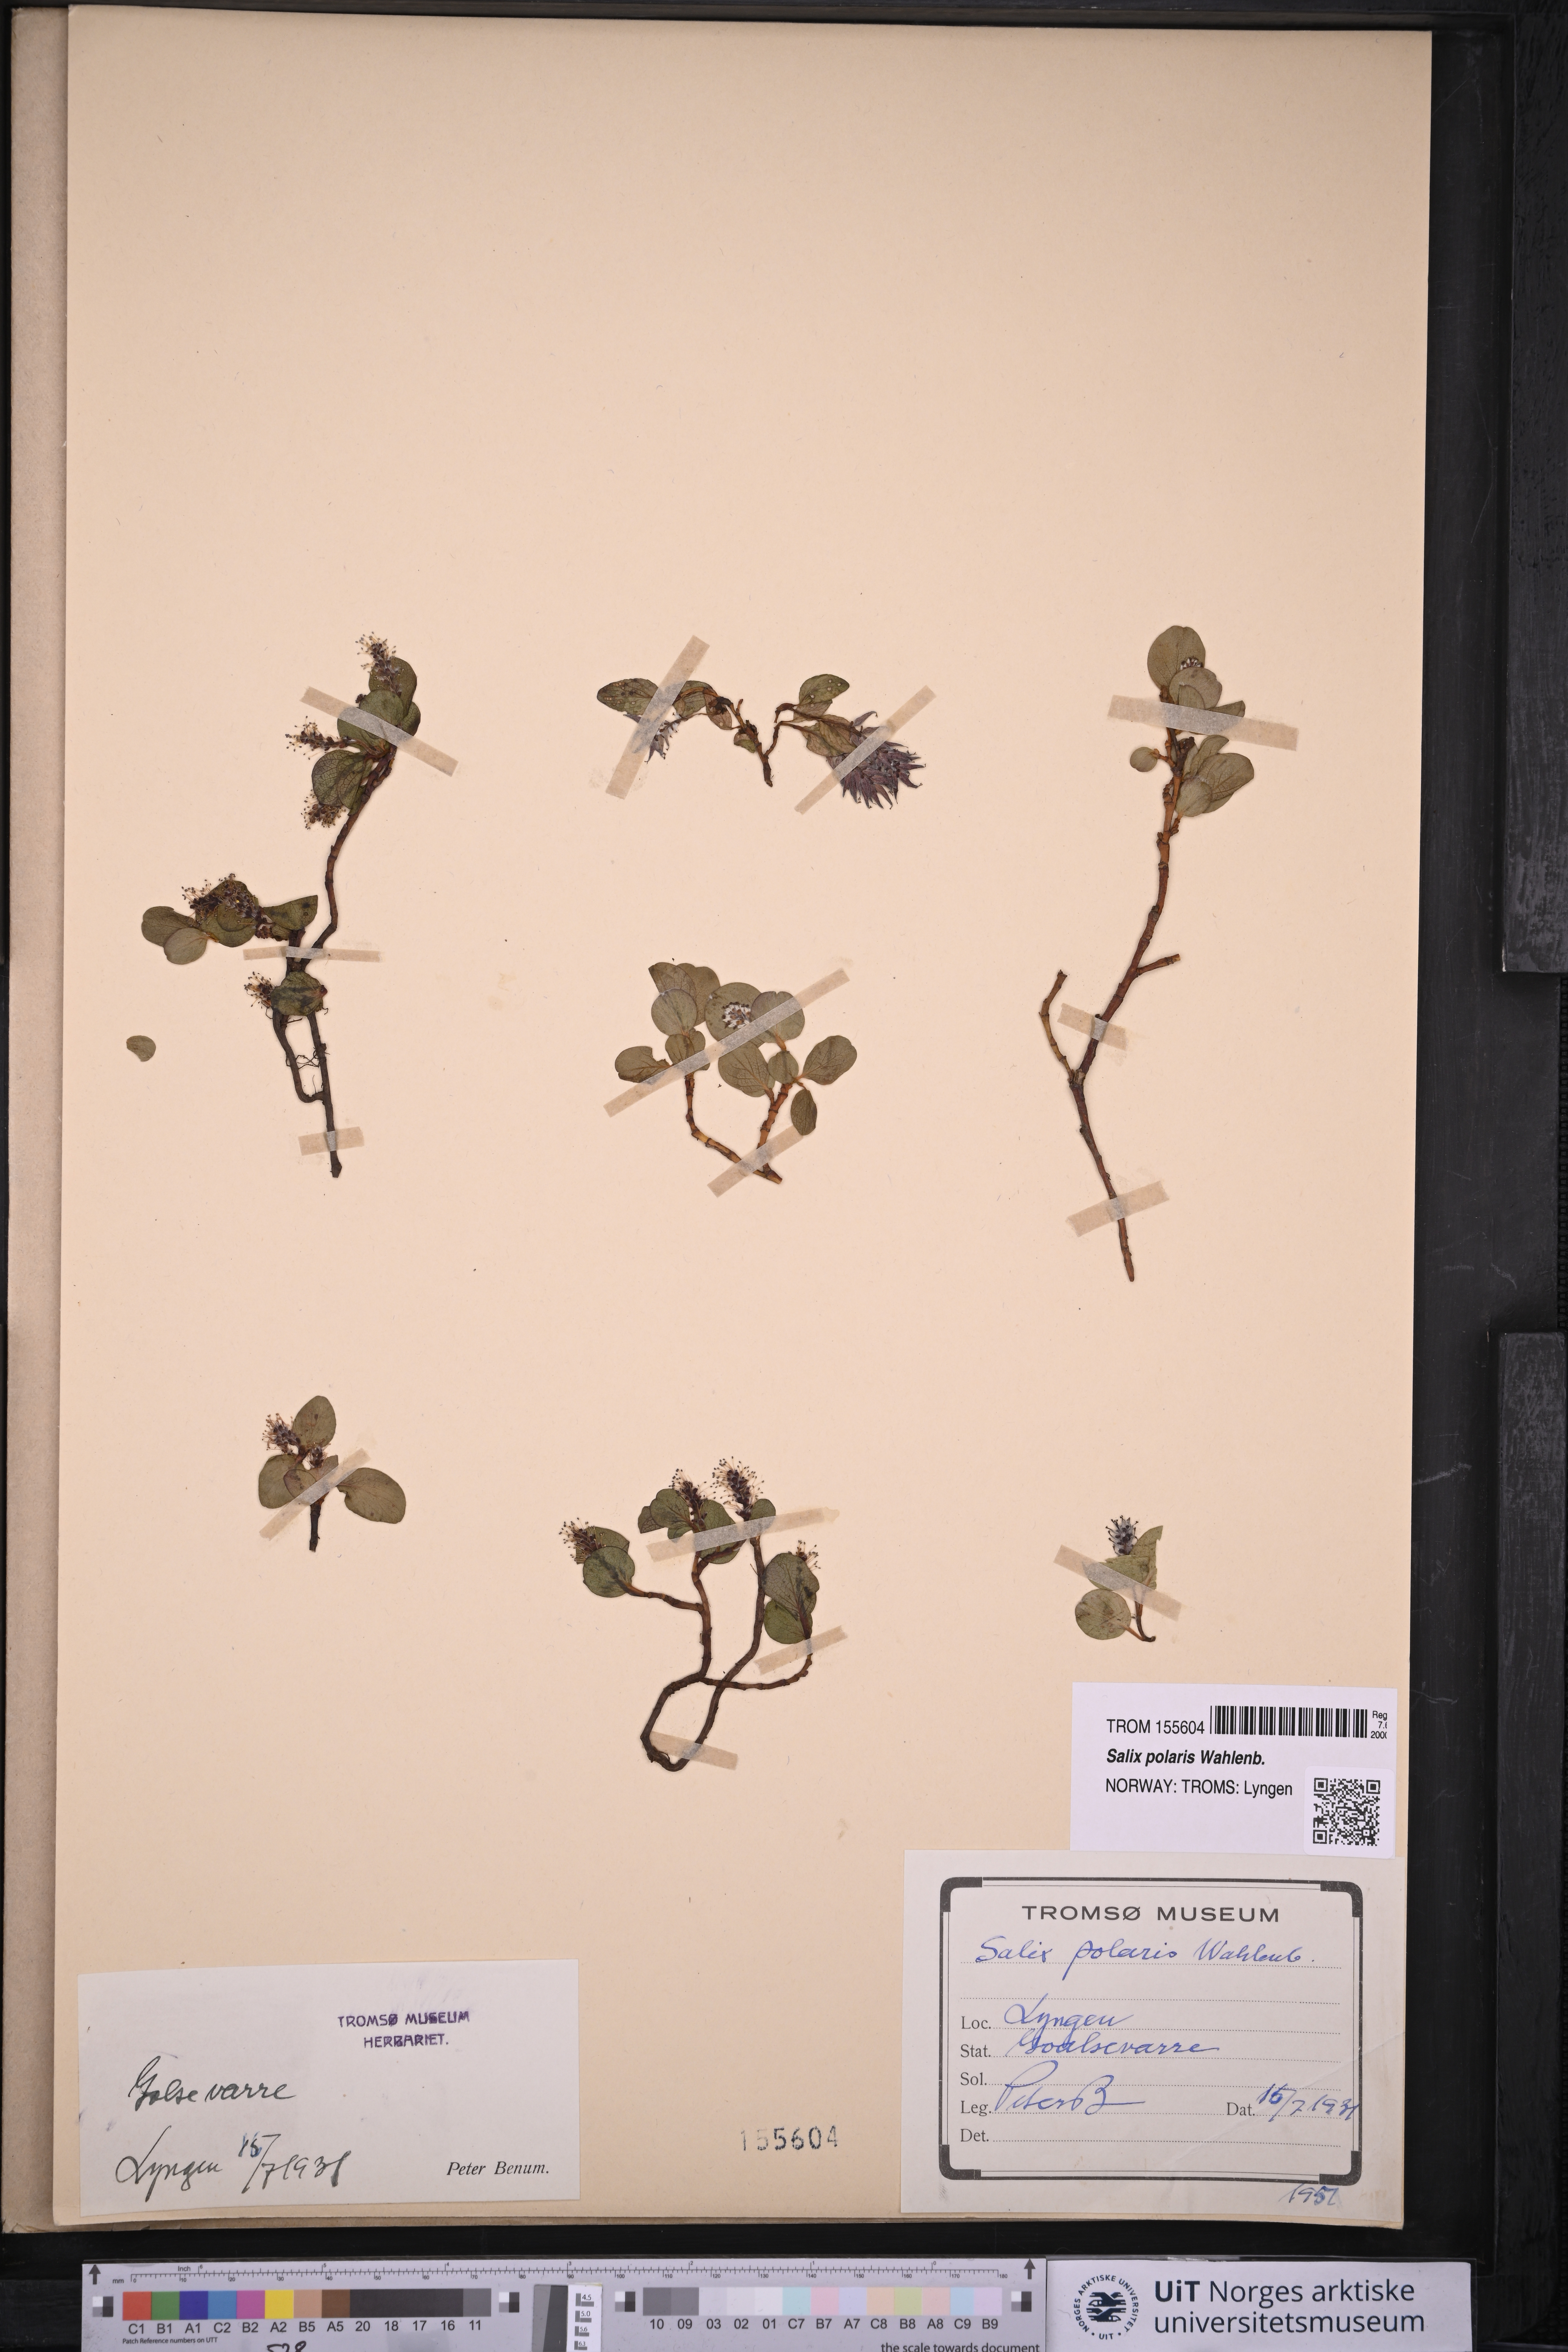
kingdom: Plantae
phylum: Tracheophyta
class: Magnoliopsida
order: Malpighiales
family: Salicaceae
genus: Salix
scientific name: Salix polaris
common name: Polar willow
